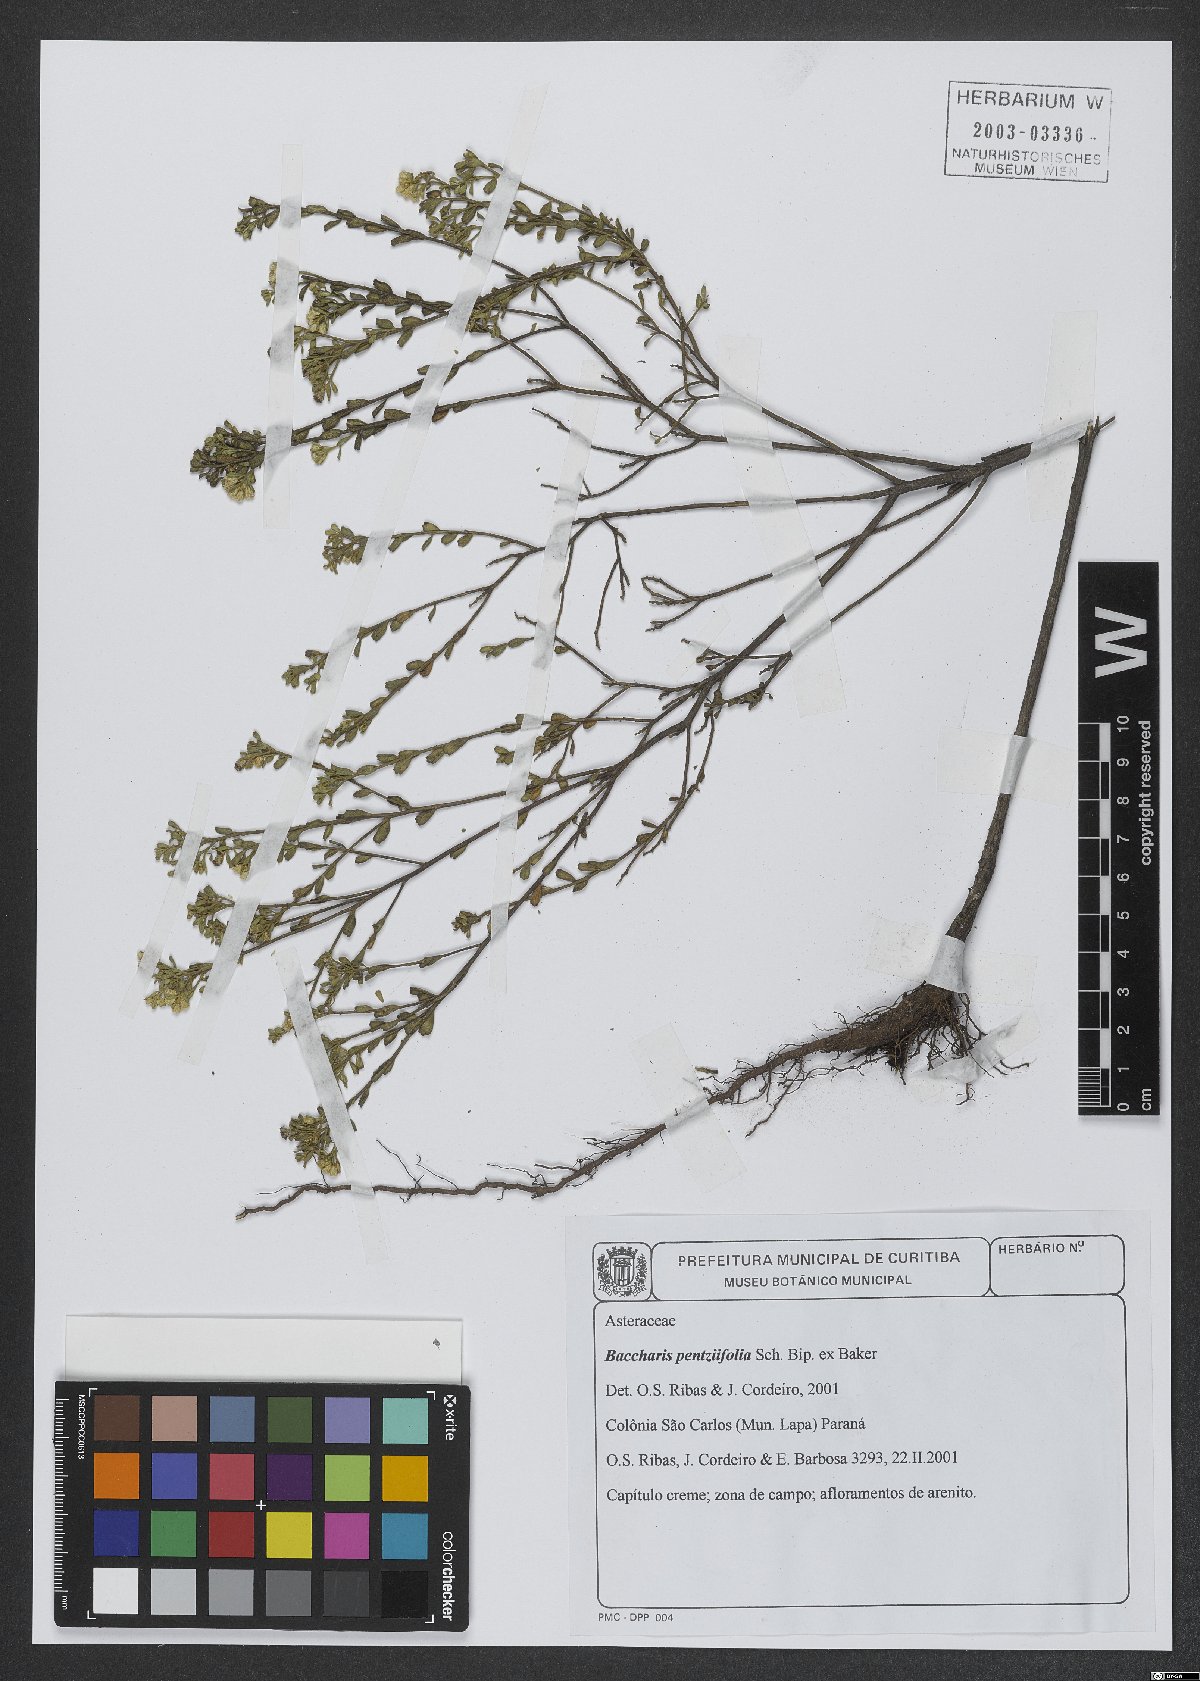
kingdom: Plantae
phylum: Tracheophyta
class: Magnoliopsida
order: Asterales
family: Asteraceae
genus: Baccharis
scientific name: Baccharis pentziifolia
